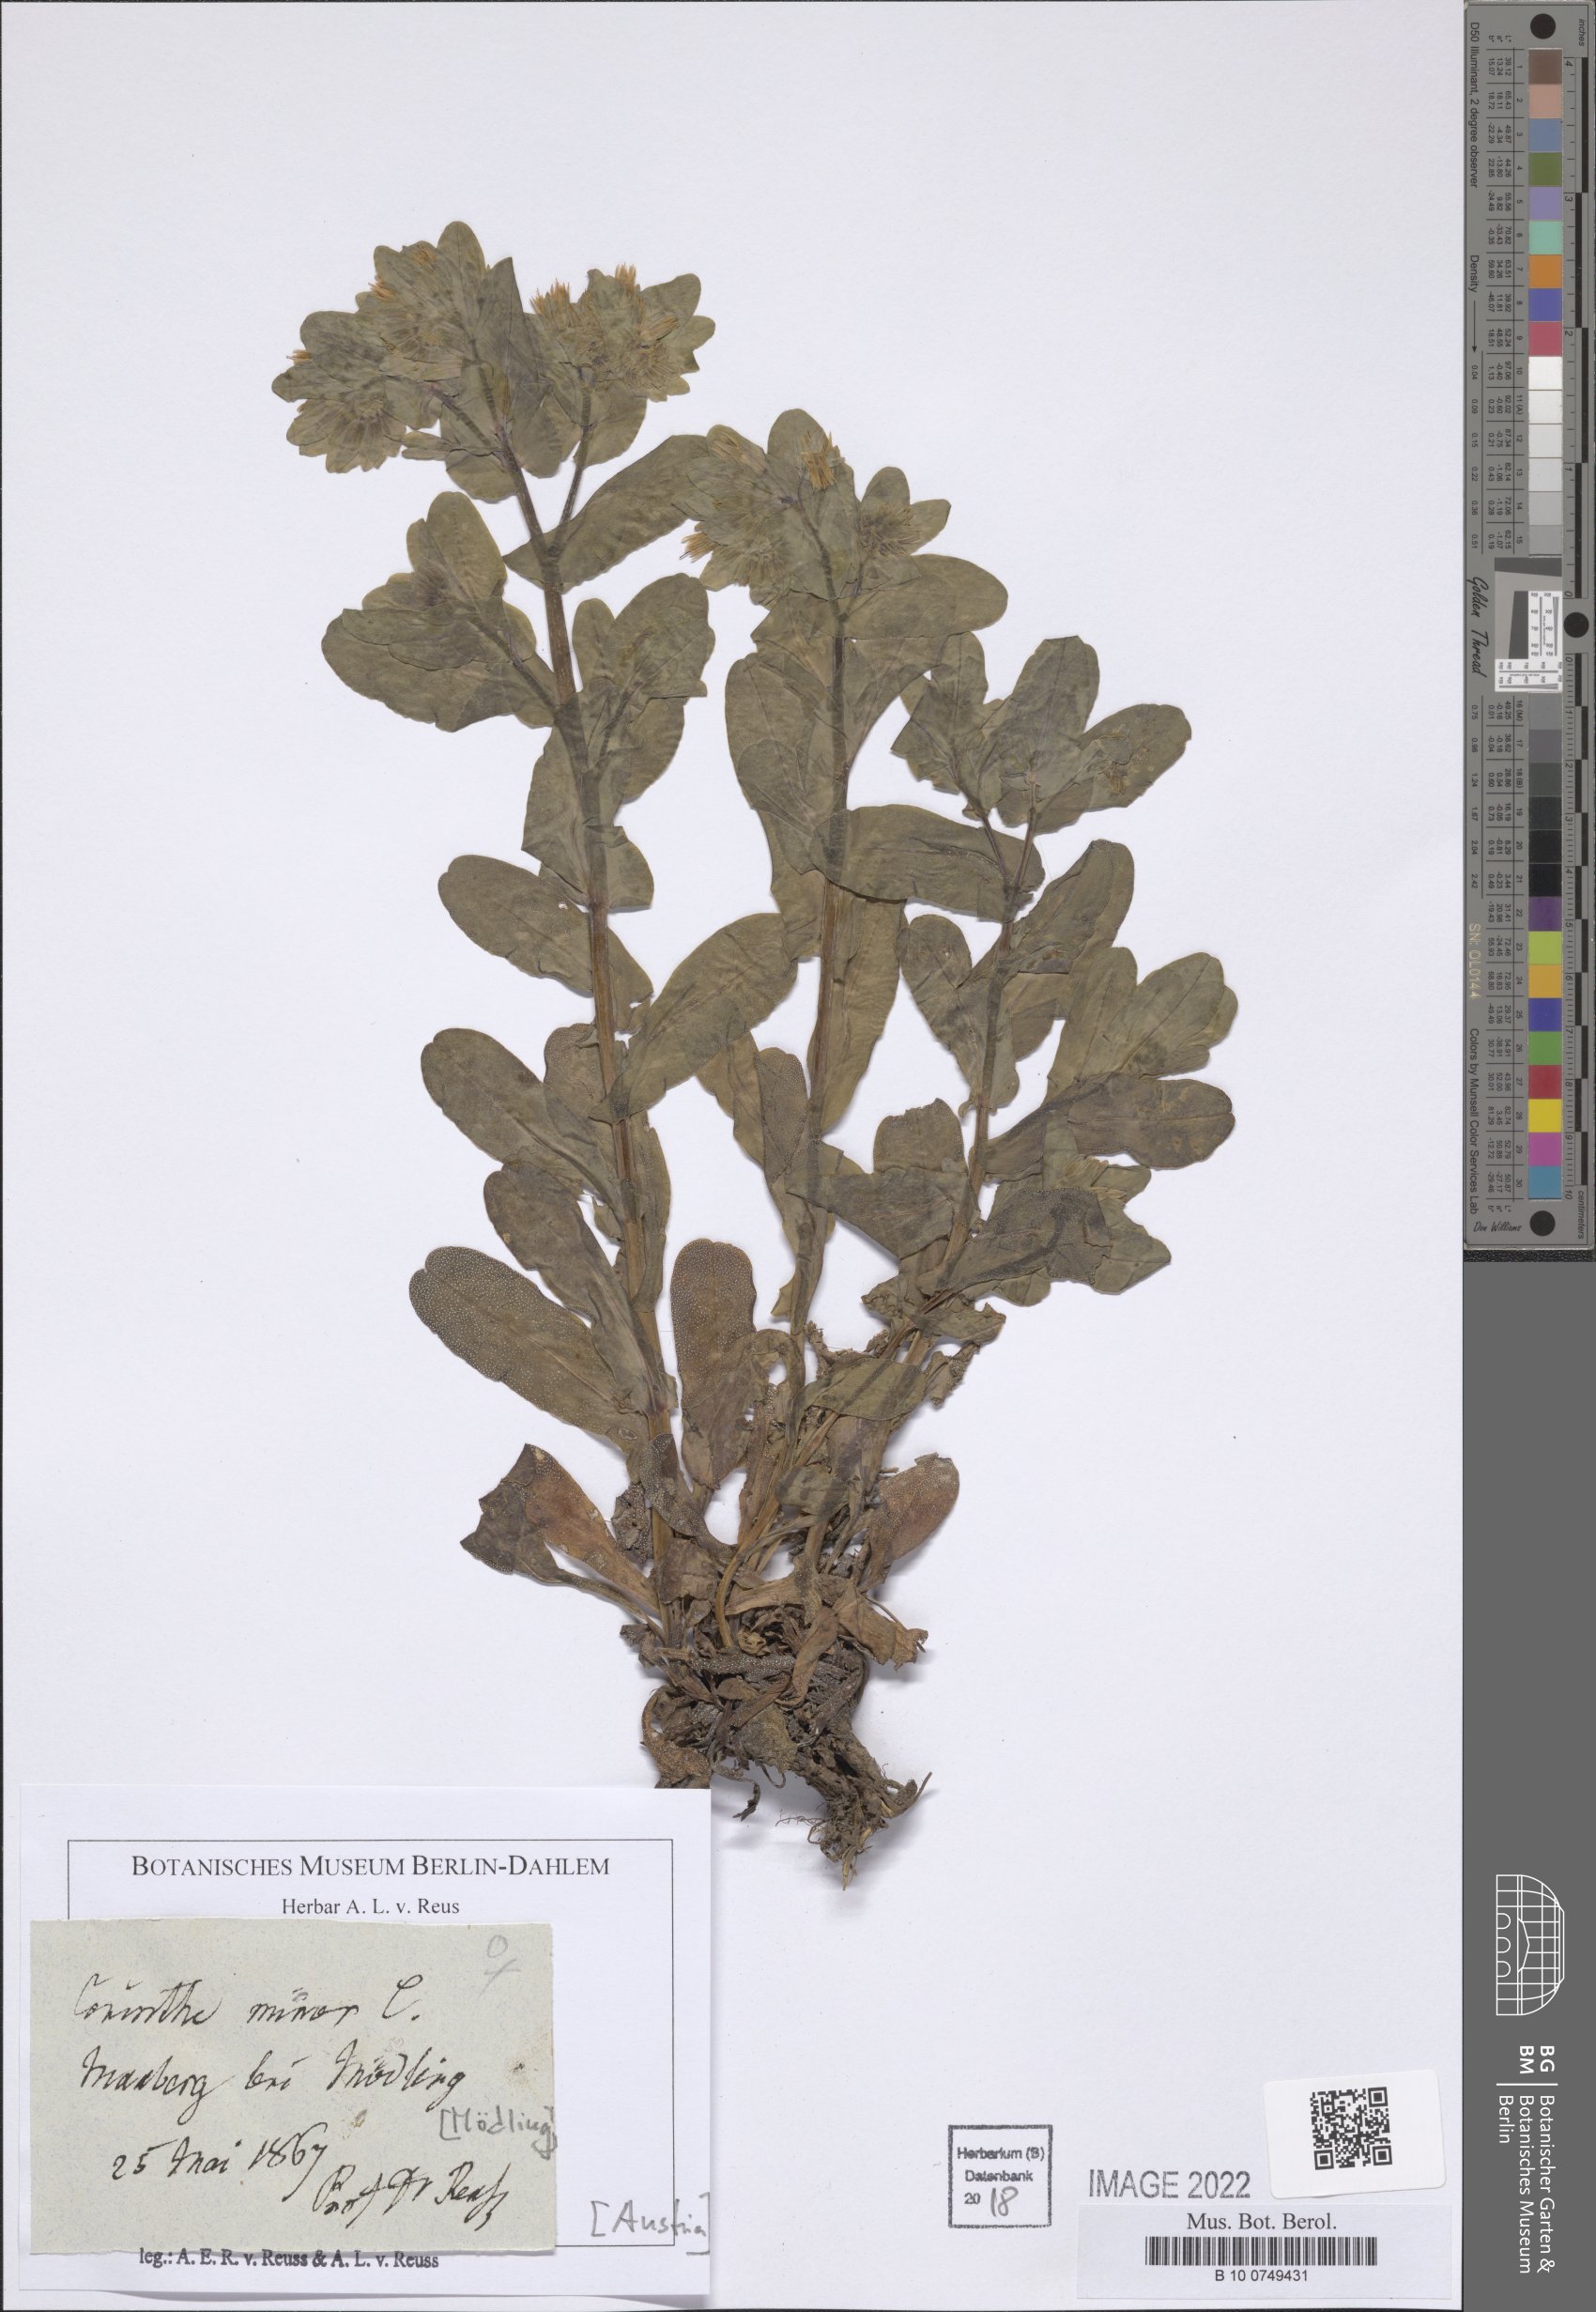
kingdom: Plantae
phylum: Tracheophyta
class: Magnoliopsida
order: Boraginales
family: Boraginaceae
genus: Cerinthe
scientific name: Cerinthe minor
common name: Lesser honeywort
